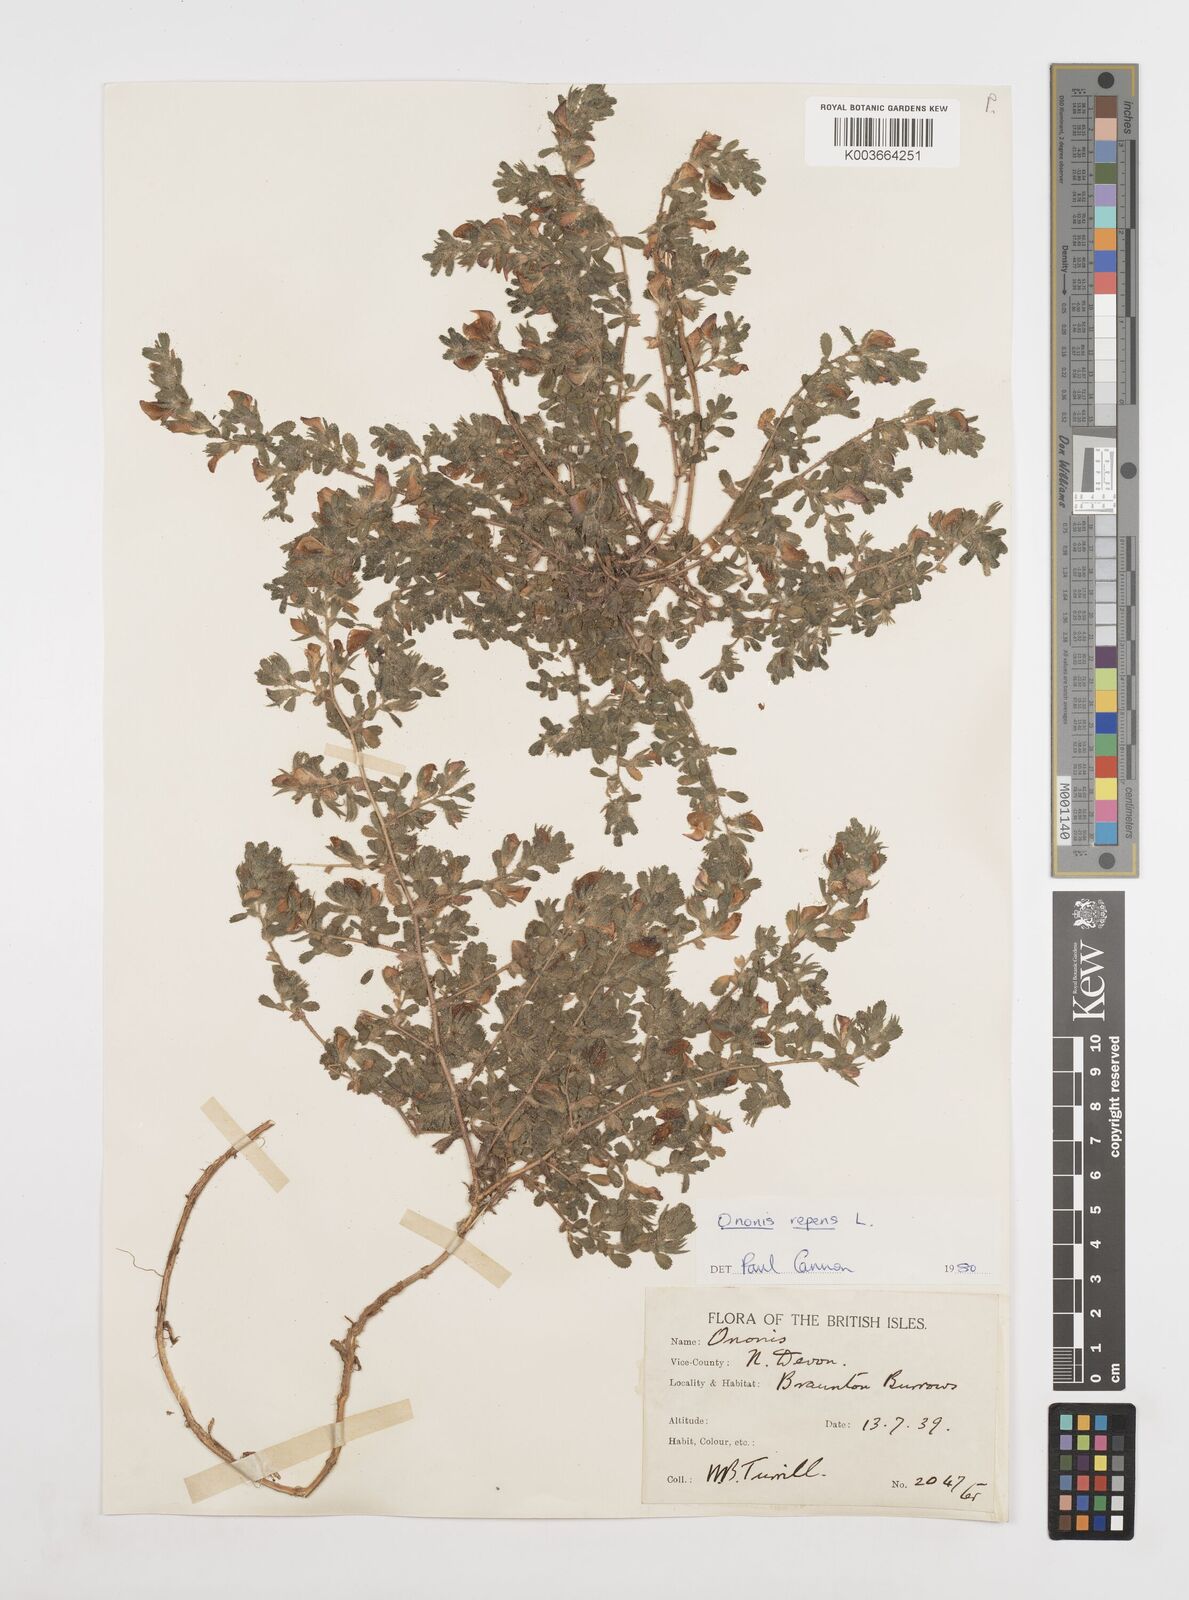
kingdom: Plantae
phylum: Tracheophyta
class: Magnoliopsida
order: Fabales
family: Fabaceae
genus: Ononis
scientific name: Ononis spinosa
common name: Spiny restharrow
